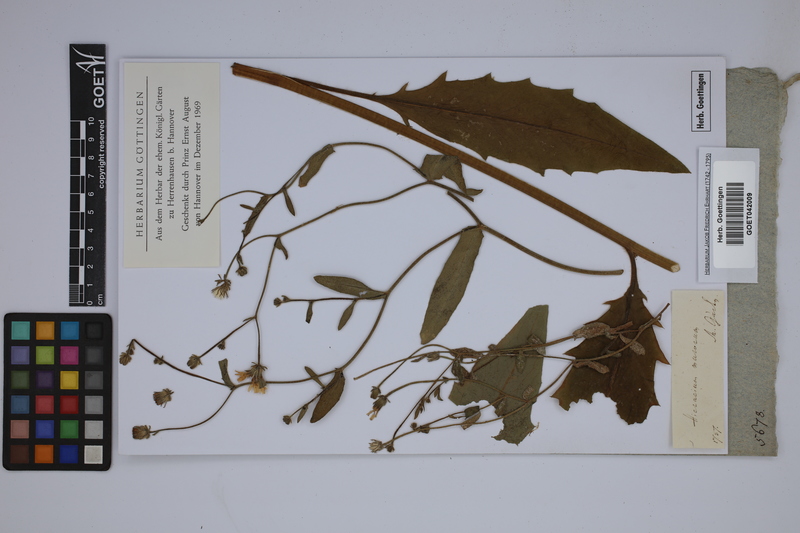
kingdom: Plantae
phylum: Tracheophyta
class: Magnoliopsida
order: Asterales
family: Asteraceae
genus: Hieracium
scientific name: Hieracium murorum
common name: Wall hawkweed
